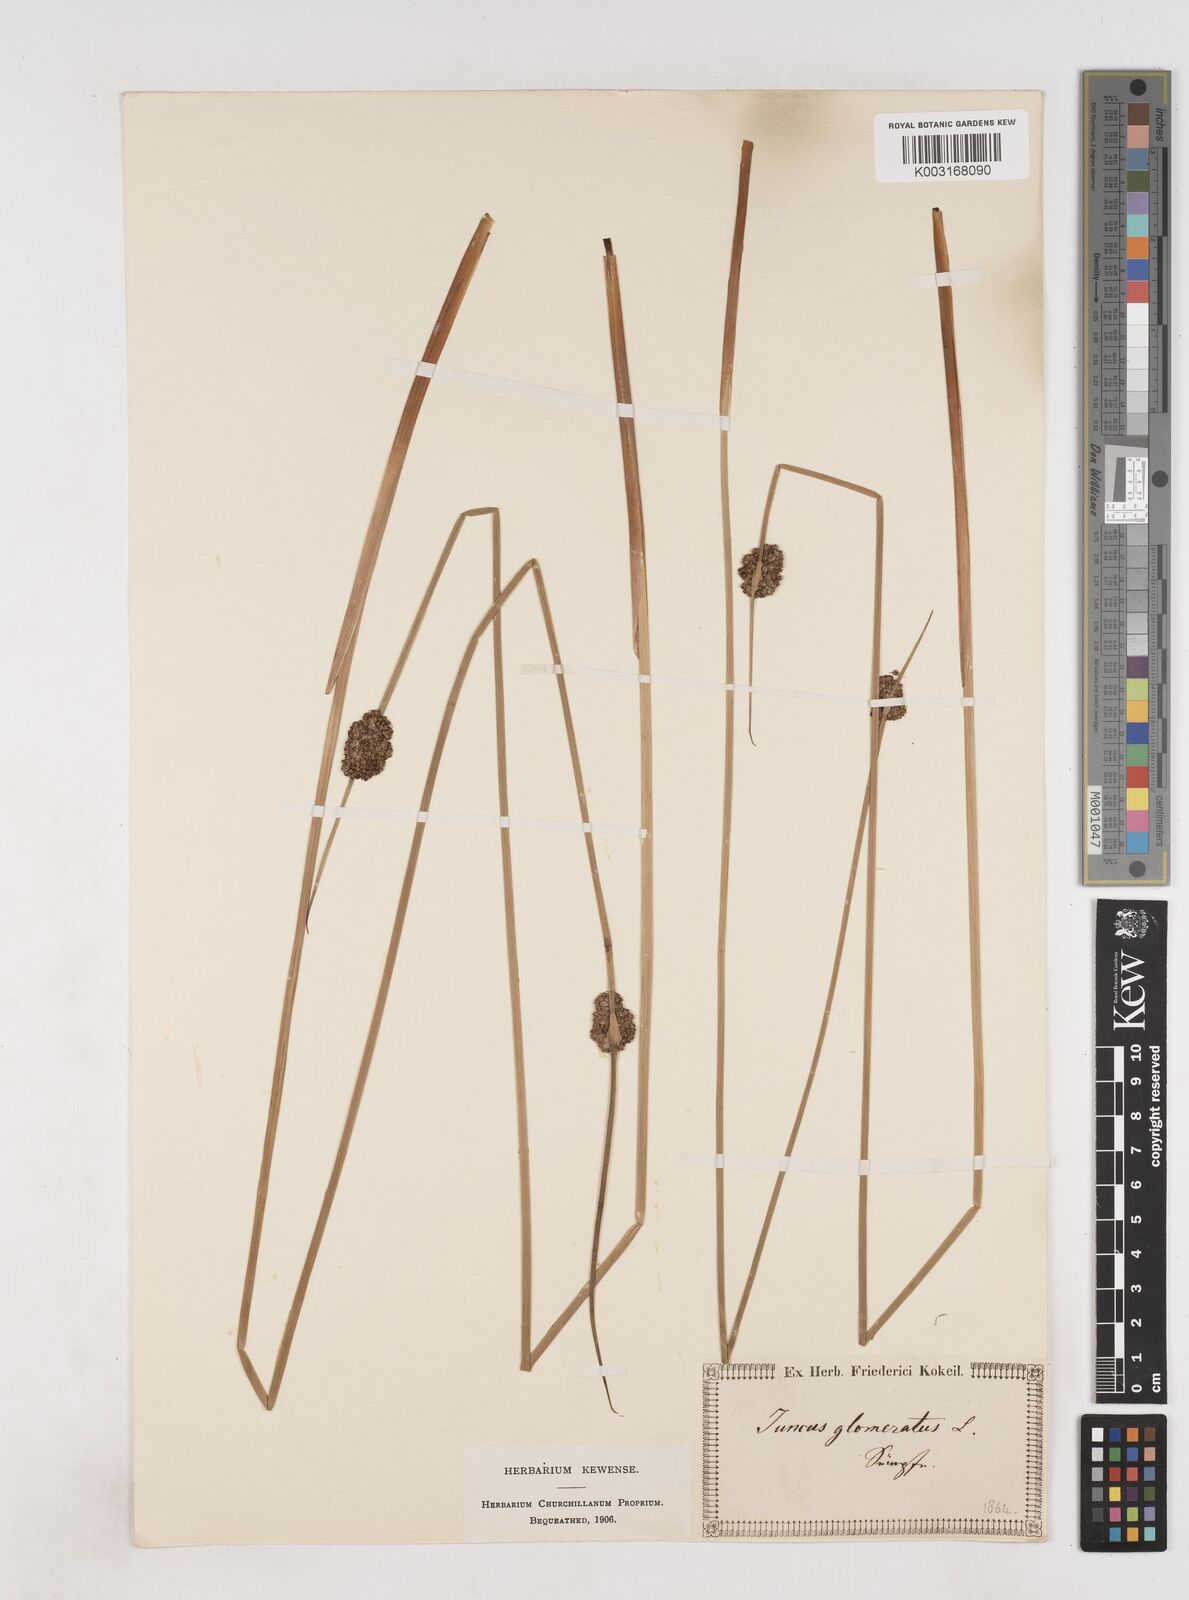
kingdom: Plantae
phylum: Tracheophyta
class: Liliopsida
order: Poales
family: Juncaceae
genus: Juncus
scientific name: Juncus conglomeratus
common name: Compact rush
